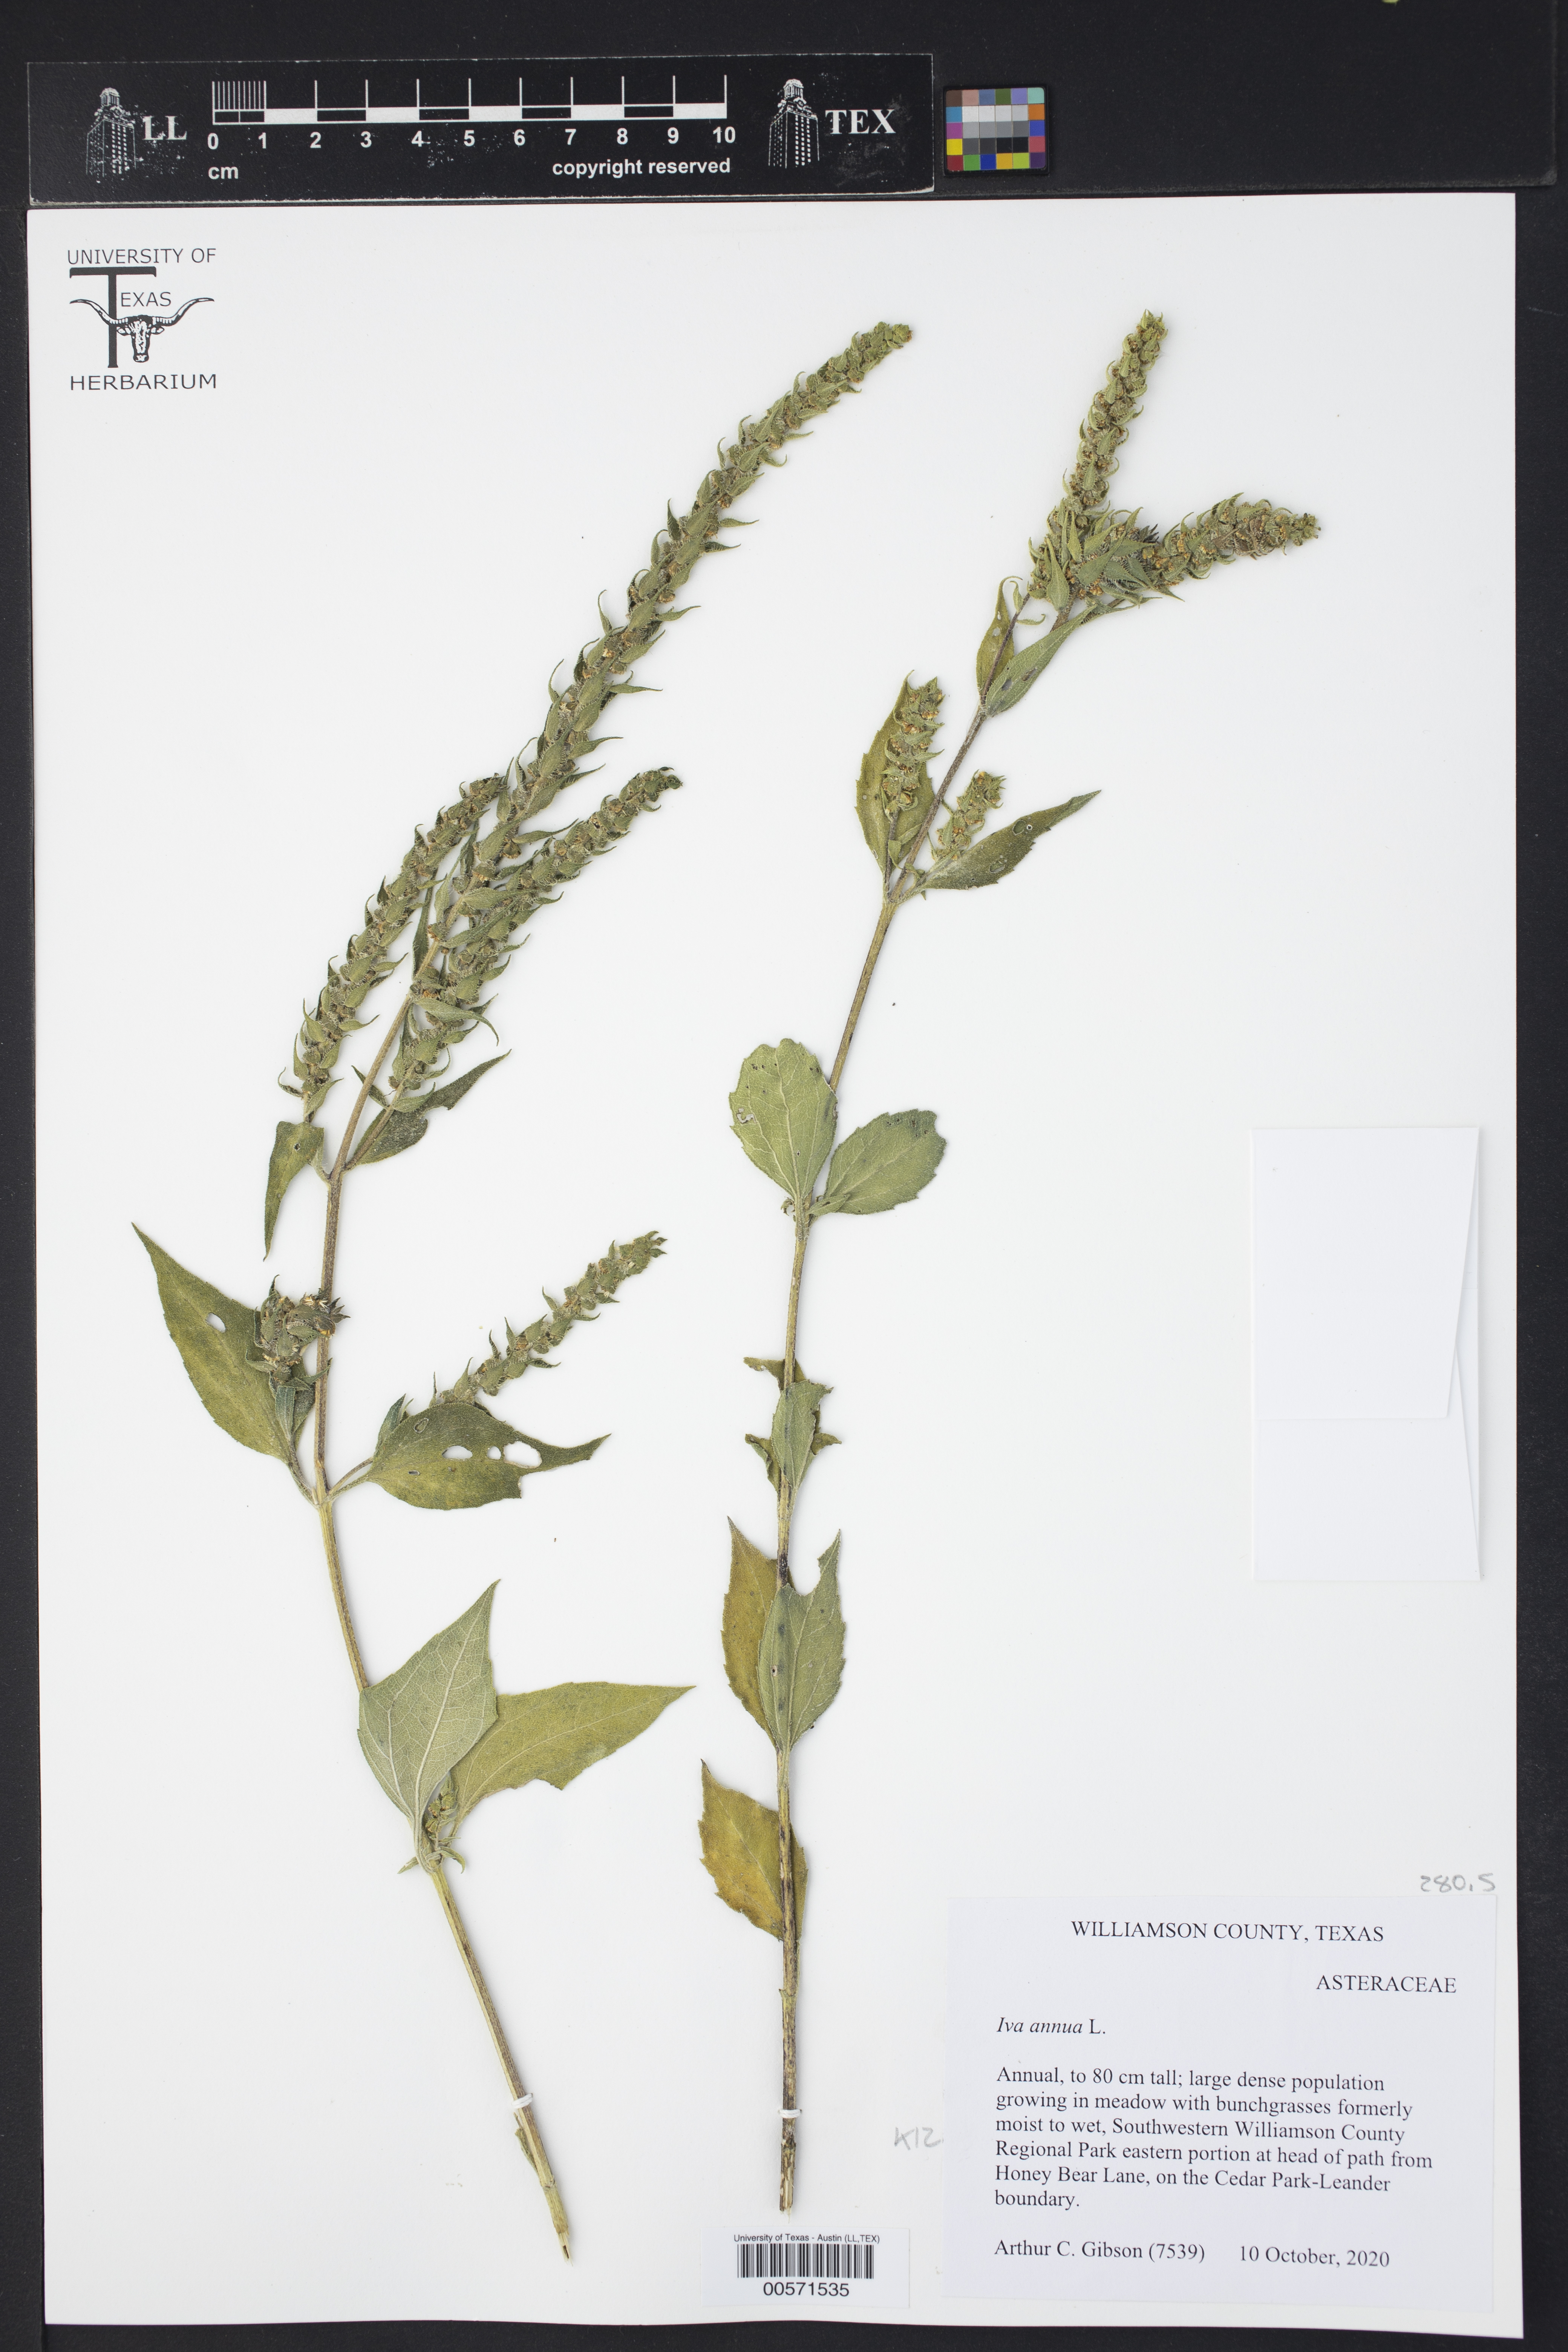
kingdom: Plantae
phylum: Tracheophyta
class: Magnoliopsida
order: Asterales
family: Asteraceae
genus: Iva
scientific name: Iva annua
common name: Marsh-elder
